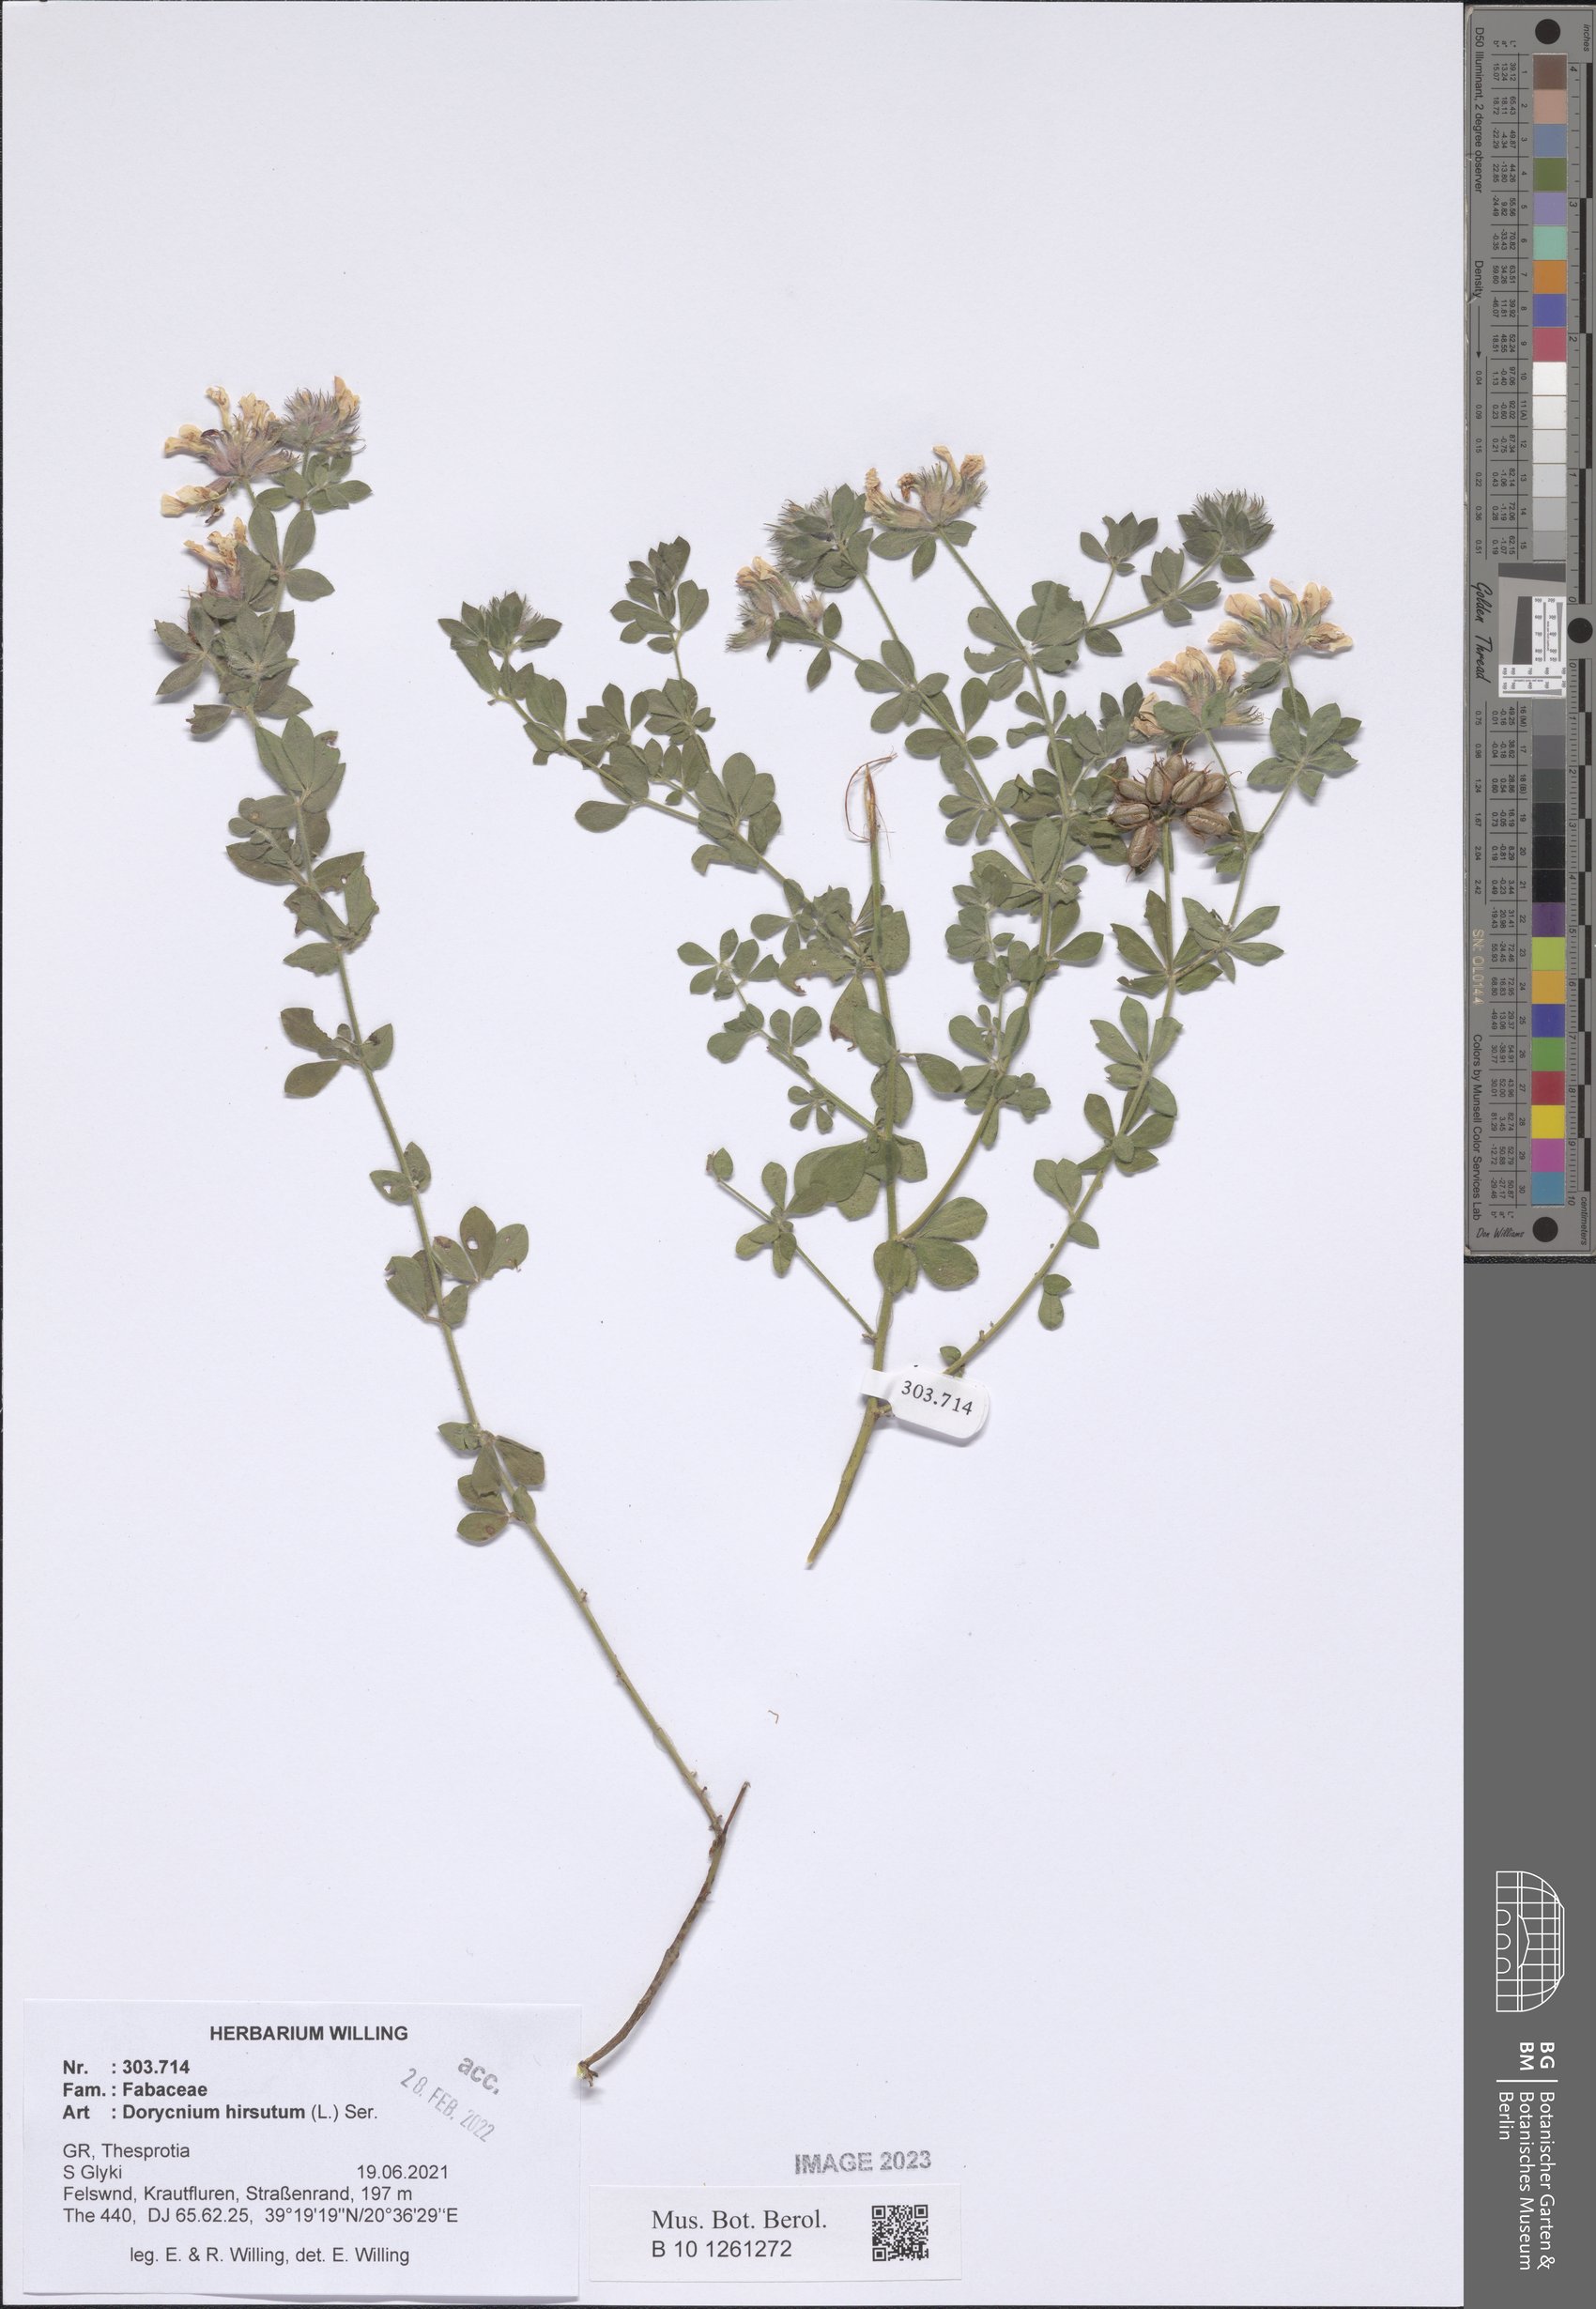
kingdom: Plantae
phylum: Tracheophyta
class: Magnoliopsida
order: Fabales
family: Fabaceae
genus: Lotus
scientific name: Lotus hirsutus
